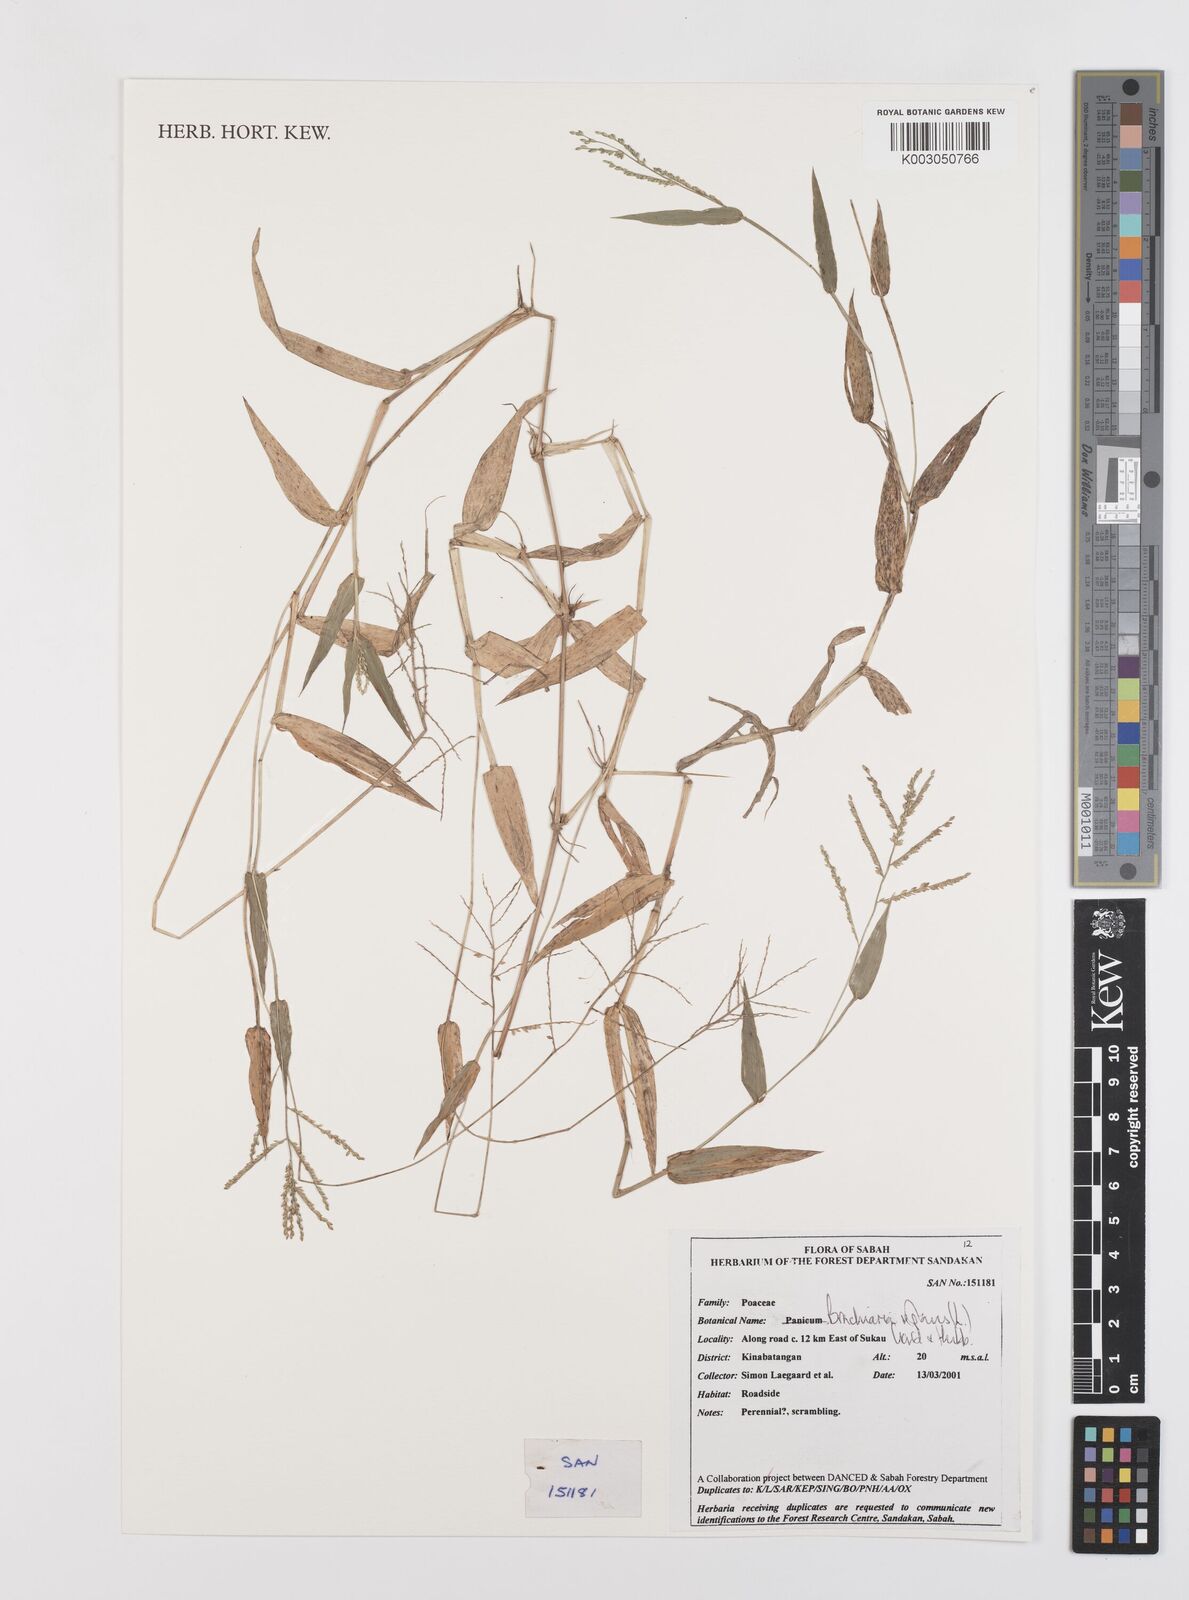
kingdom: Plantae
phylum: Tracheophyta
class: Liliopsida
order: Poales
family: Poaceae
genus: Urochloa
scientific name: Urochloa reptans
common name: Sprawling signalgrass
